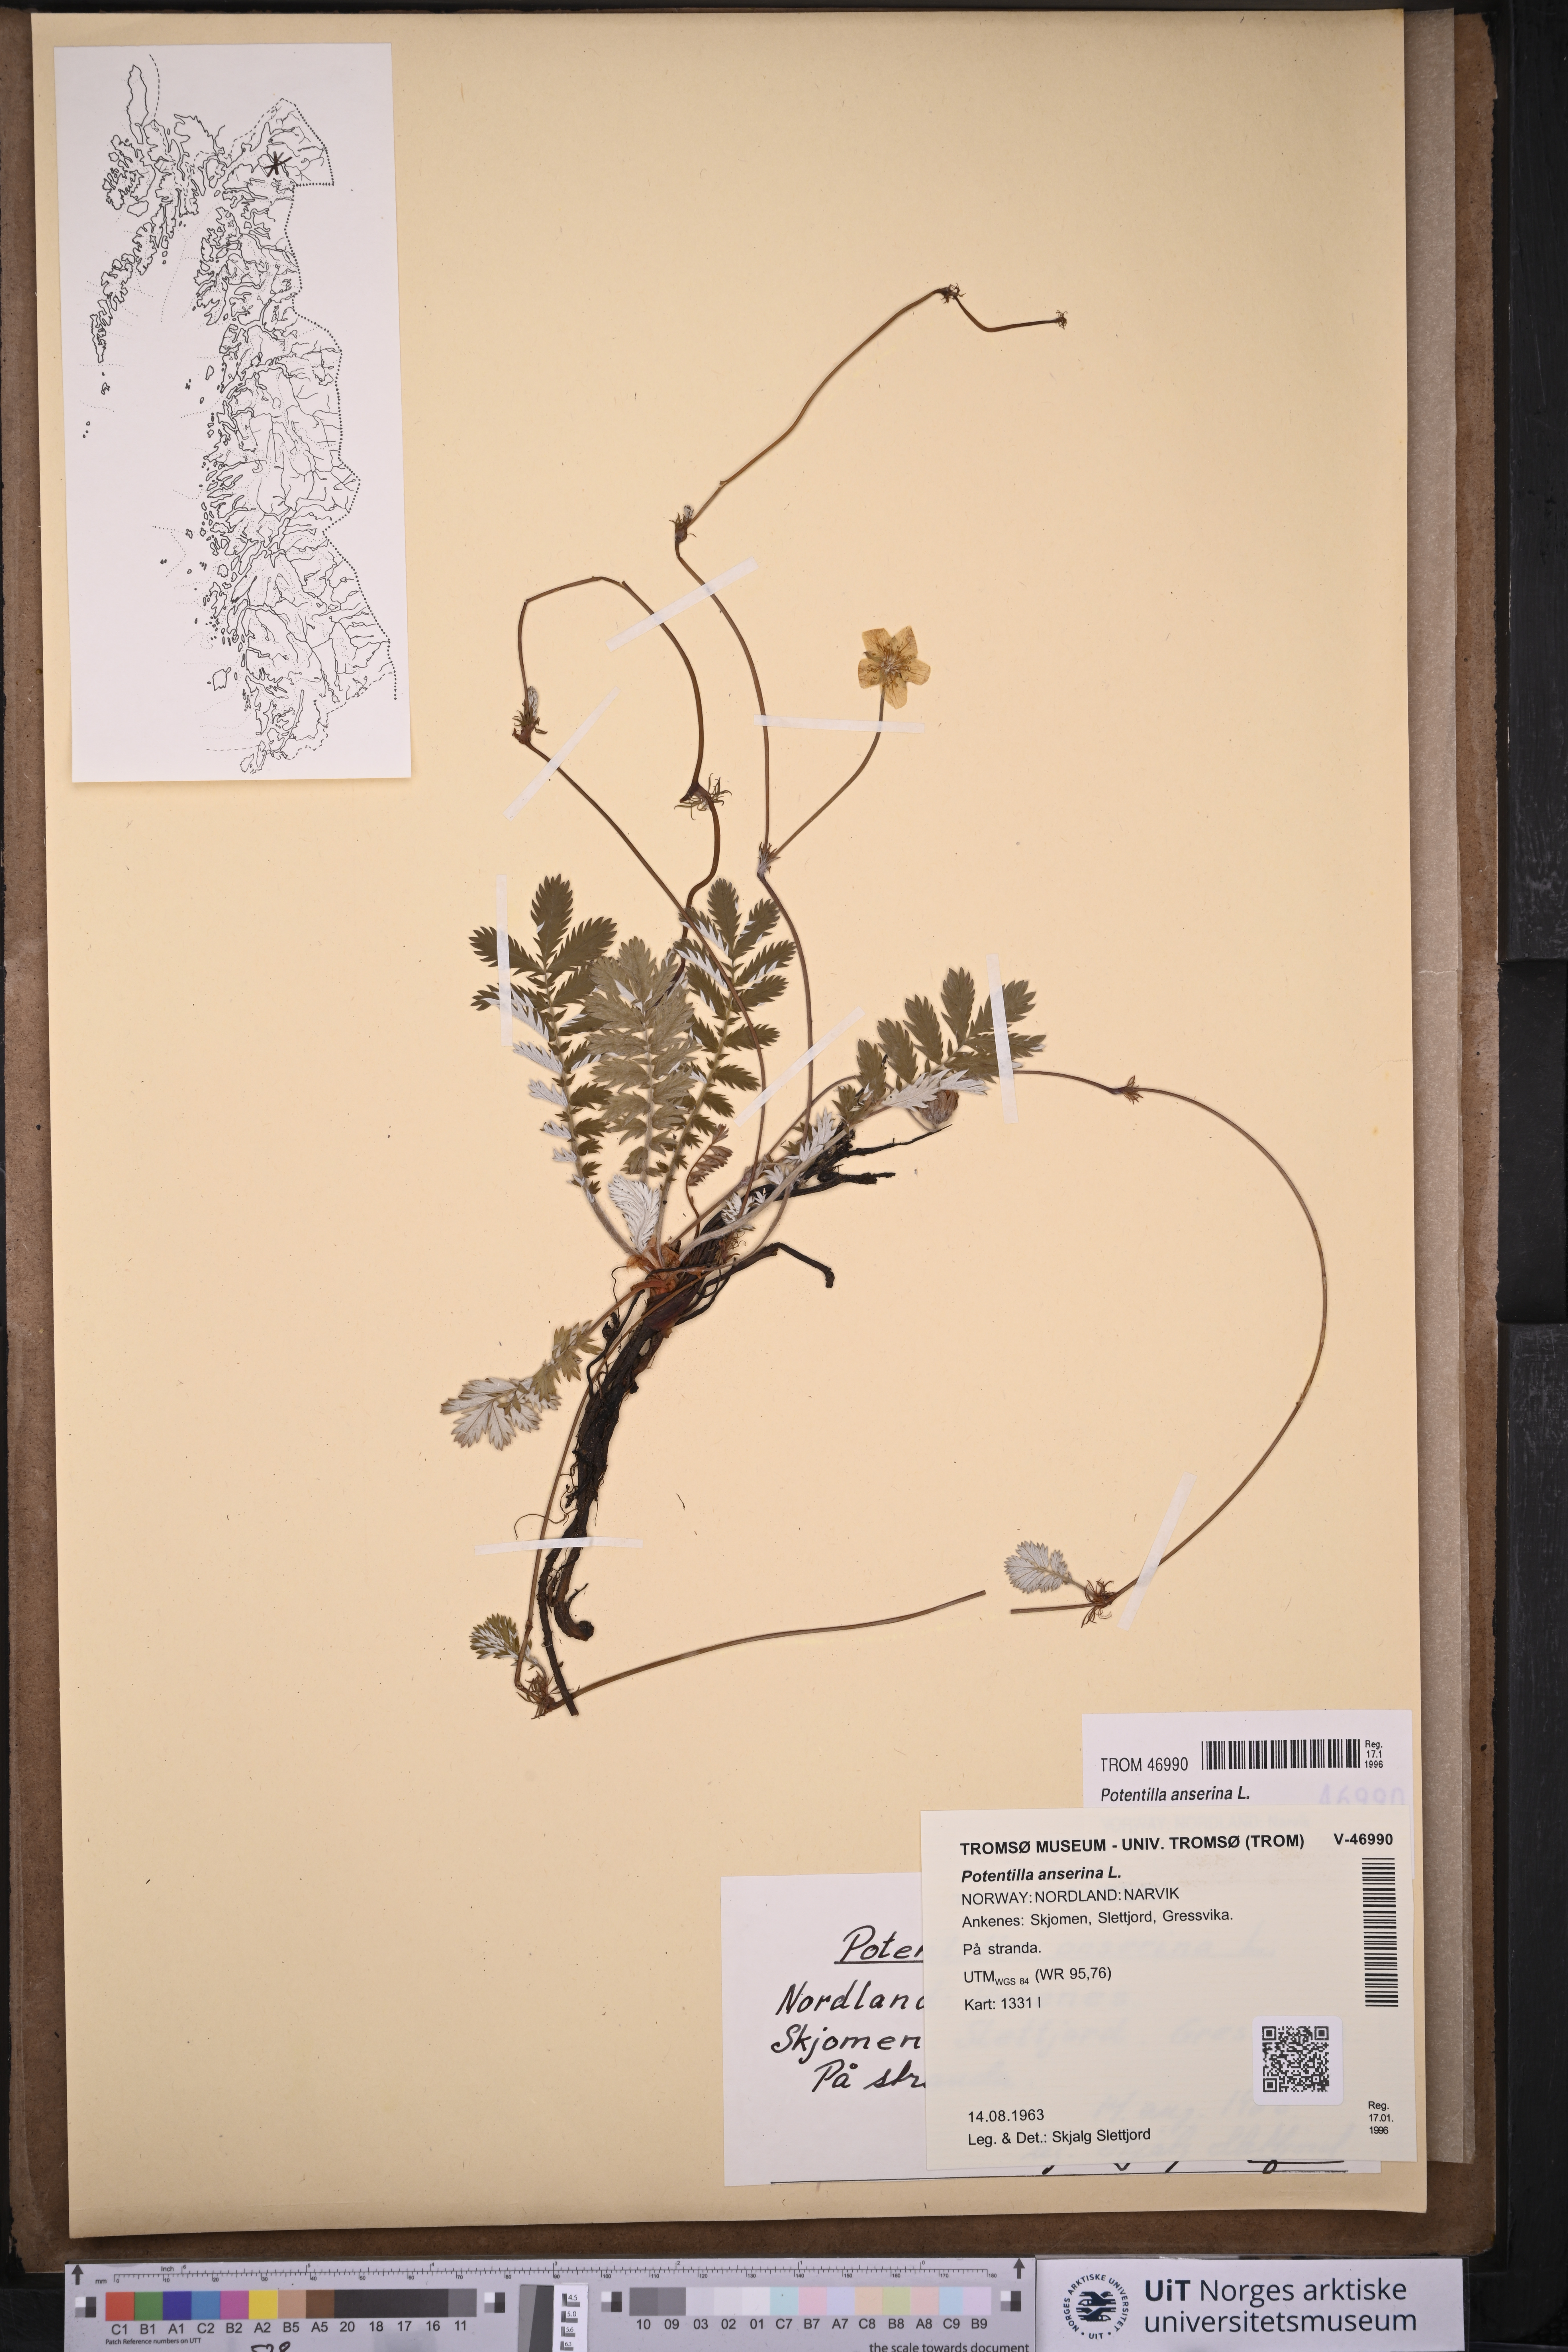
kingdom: Plantae
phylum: Tracheophyta
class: Magnoliopsida
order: Rosales
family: Rosaceae
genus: Argentina
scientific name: Argentina anserina
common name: Common silverweed
